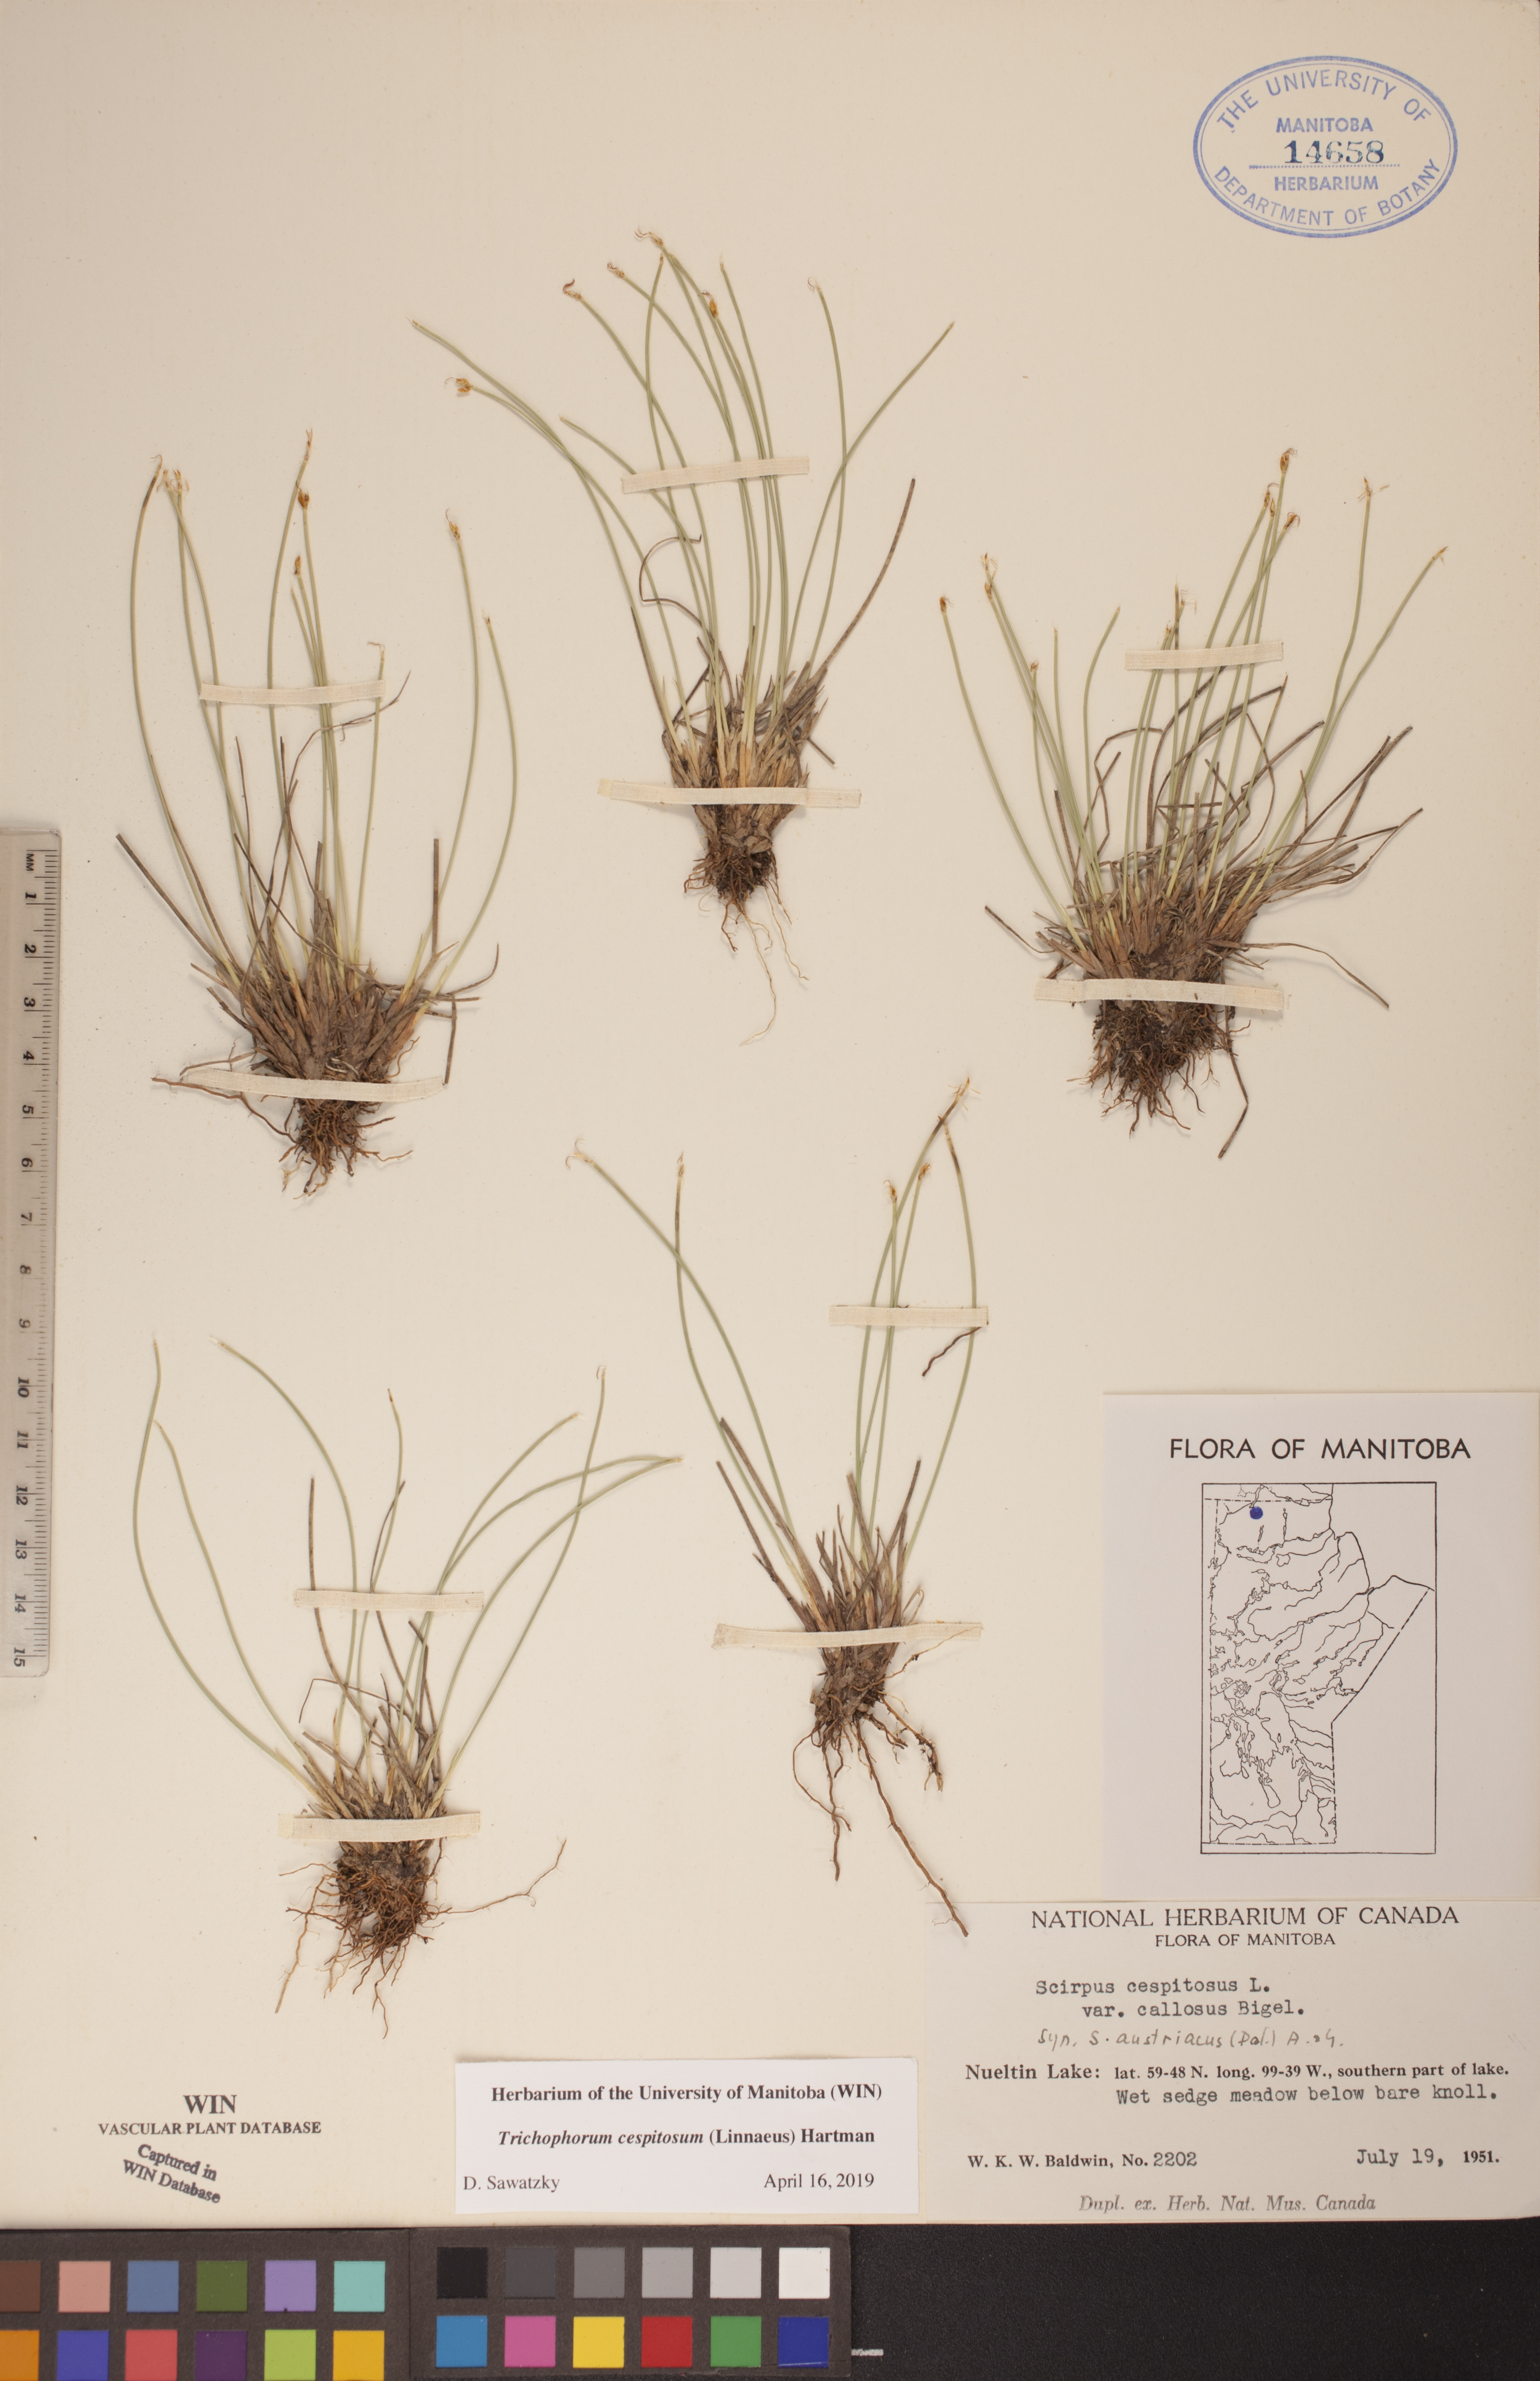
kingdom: Plantae
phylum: Tracheophyta
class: Liliopsida
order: Poales
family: Cyperaceae
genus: Trichophorum
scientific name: Trichophorum cespitosum
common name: Cespitose bulrush
